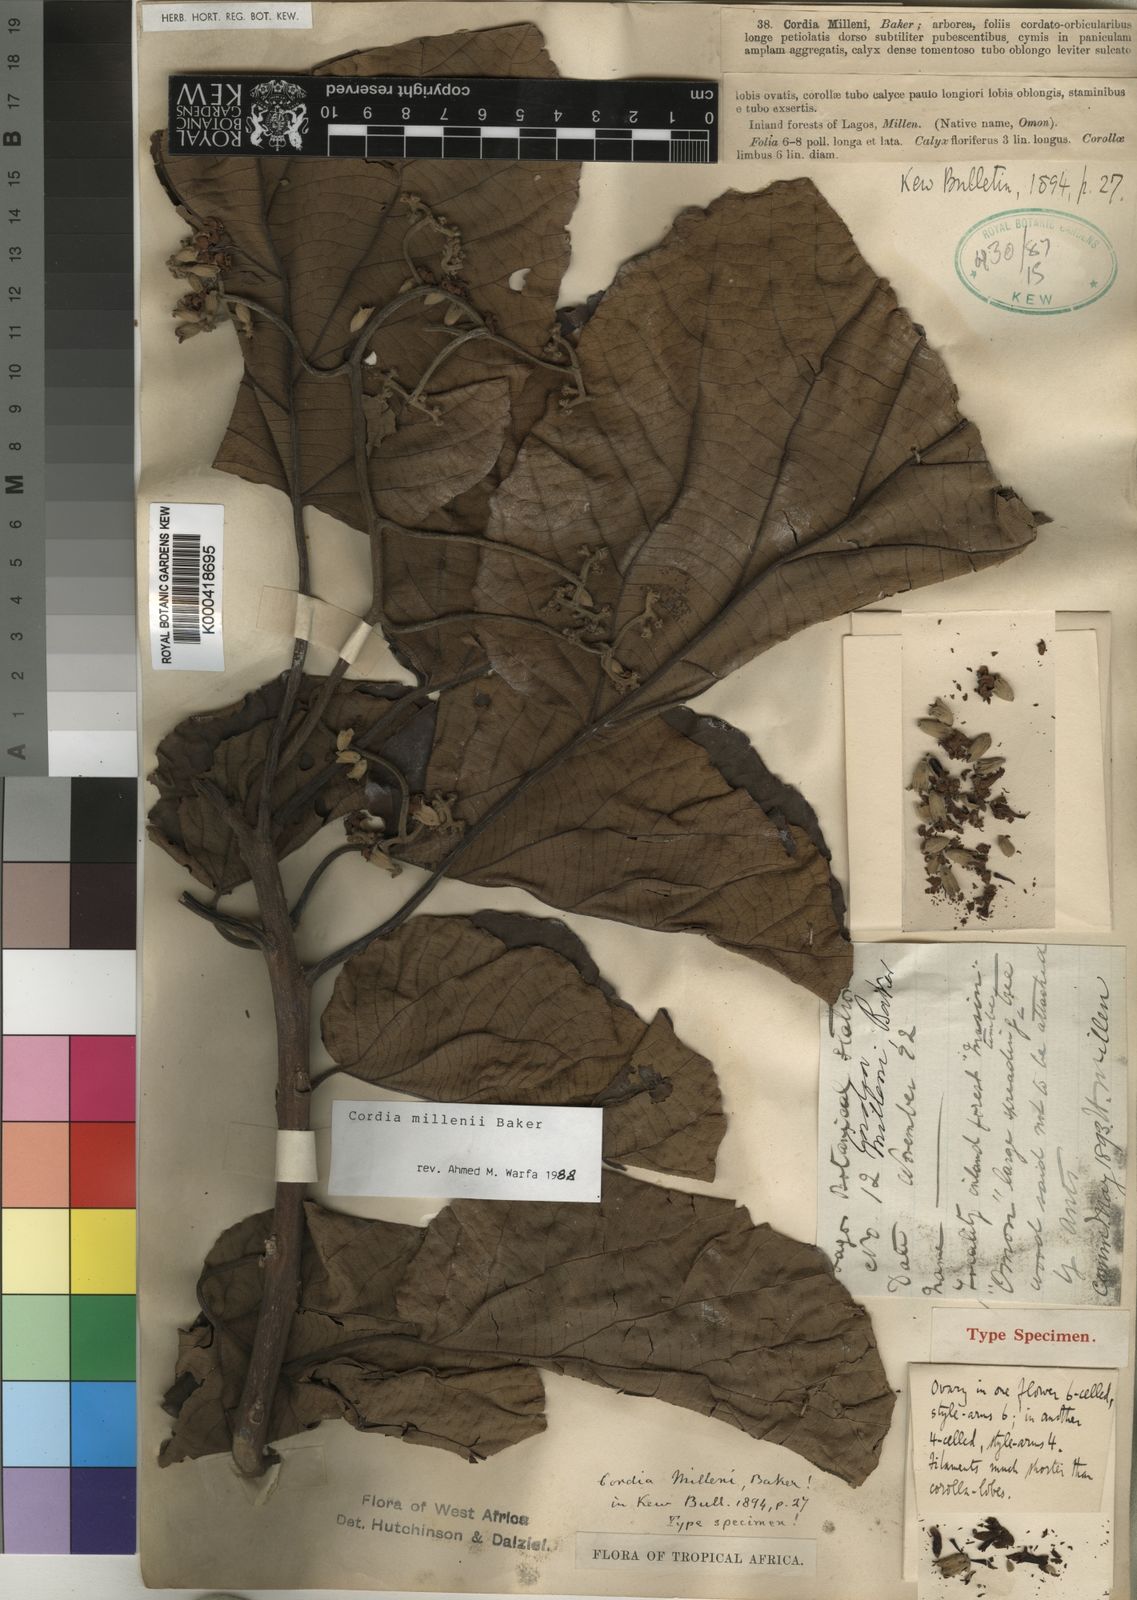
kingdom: Plantae
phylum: Tracheophyta
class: Magnoliopsida
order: Boraginales
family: Cordiaceae
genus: Cordia
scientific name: Cordia millenii
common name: Drum tree
